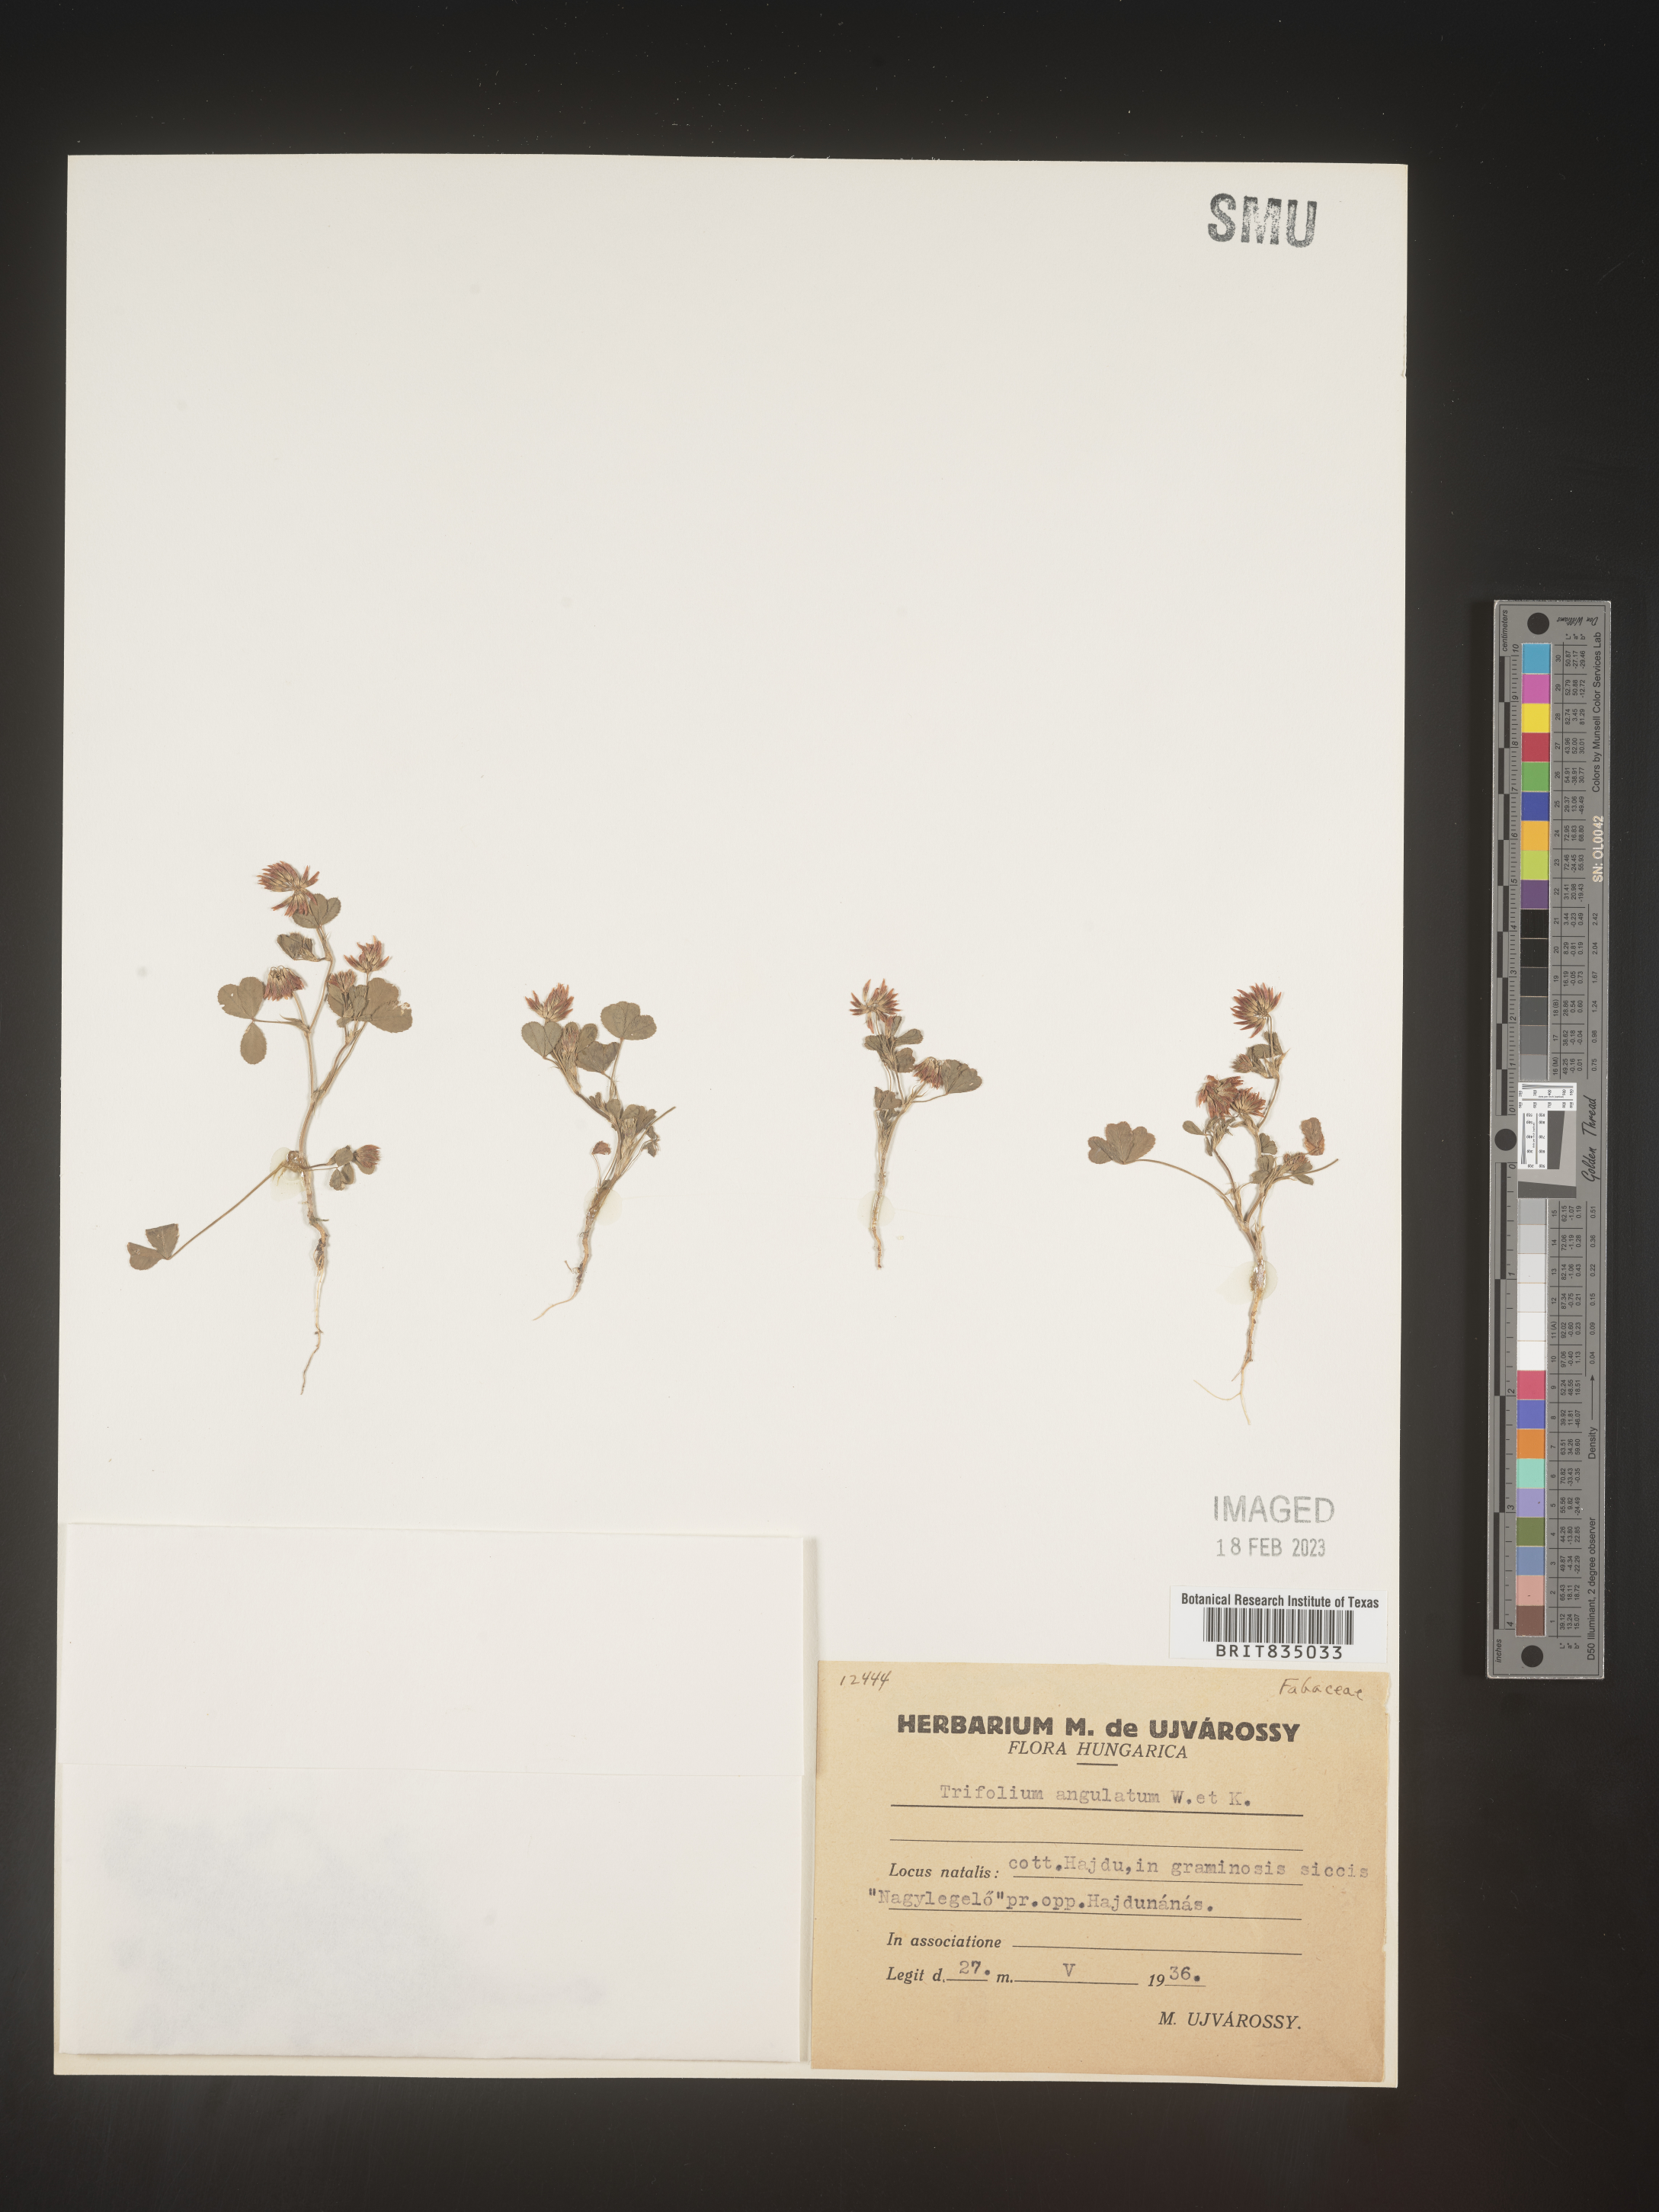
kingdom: Plantae
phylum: Tracheophyta
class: Magnoliopsida
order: Fabales
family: Fabaceae
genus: Trifolium
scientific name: Trifolium
